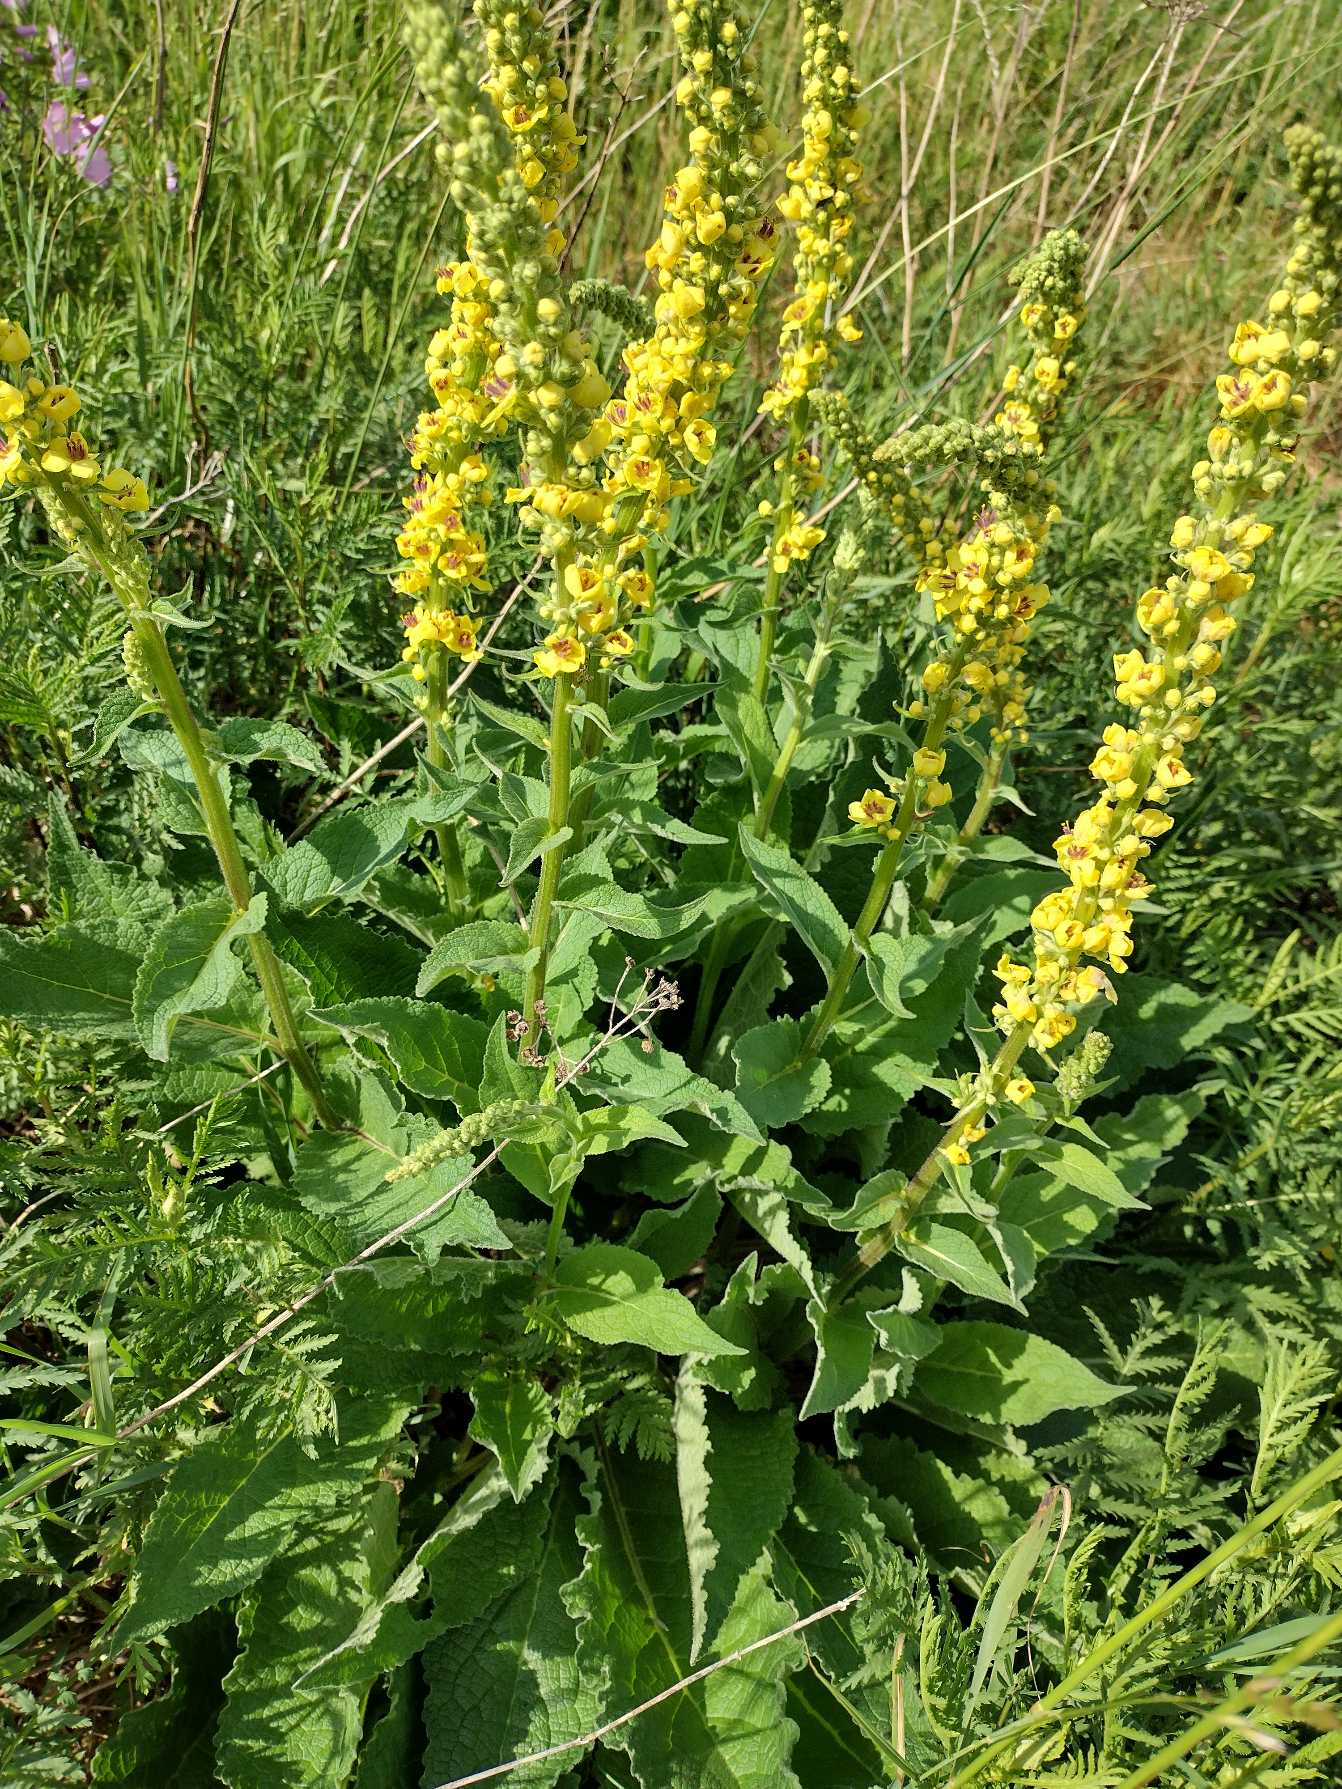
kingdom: Plantae
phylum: Tracheophyta
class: Magnoliopsida
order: Lamiales
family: Scrophulariaceae
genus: Verbascum
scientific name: Verbascum nigrum
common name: Mørk kongelys
